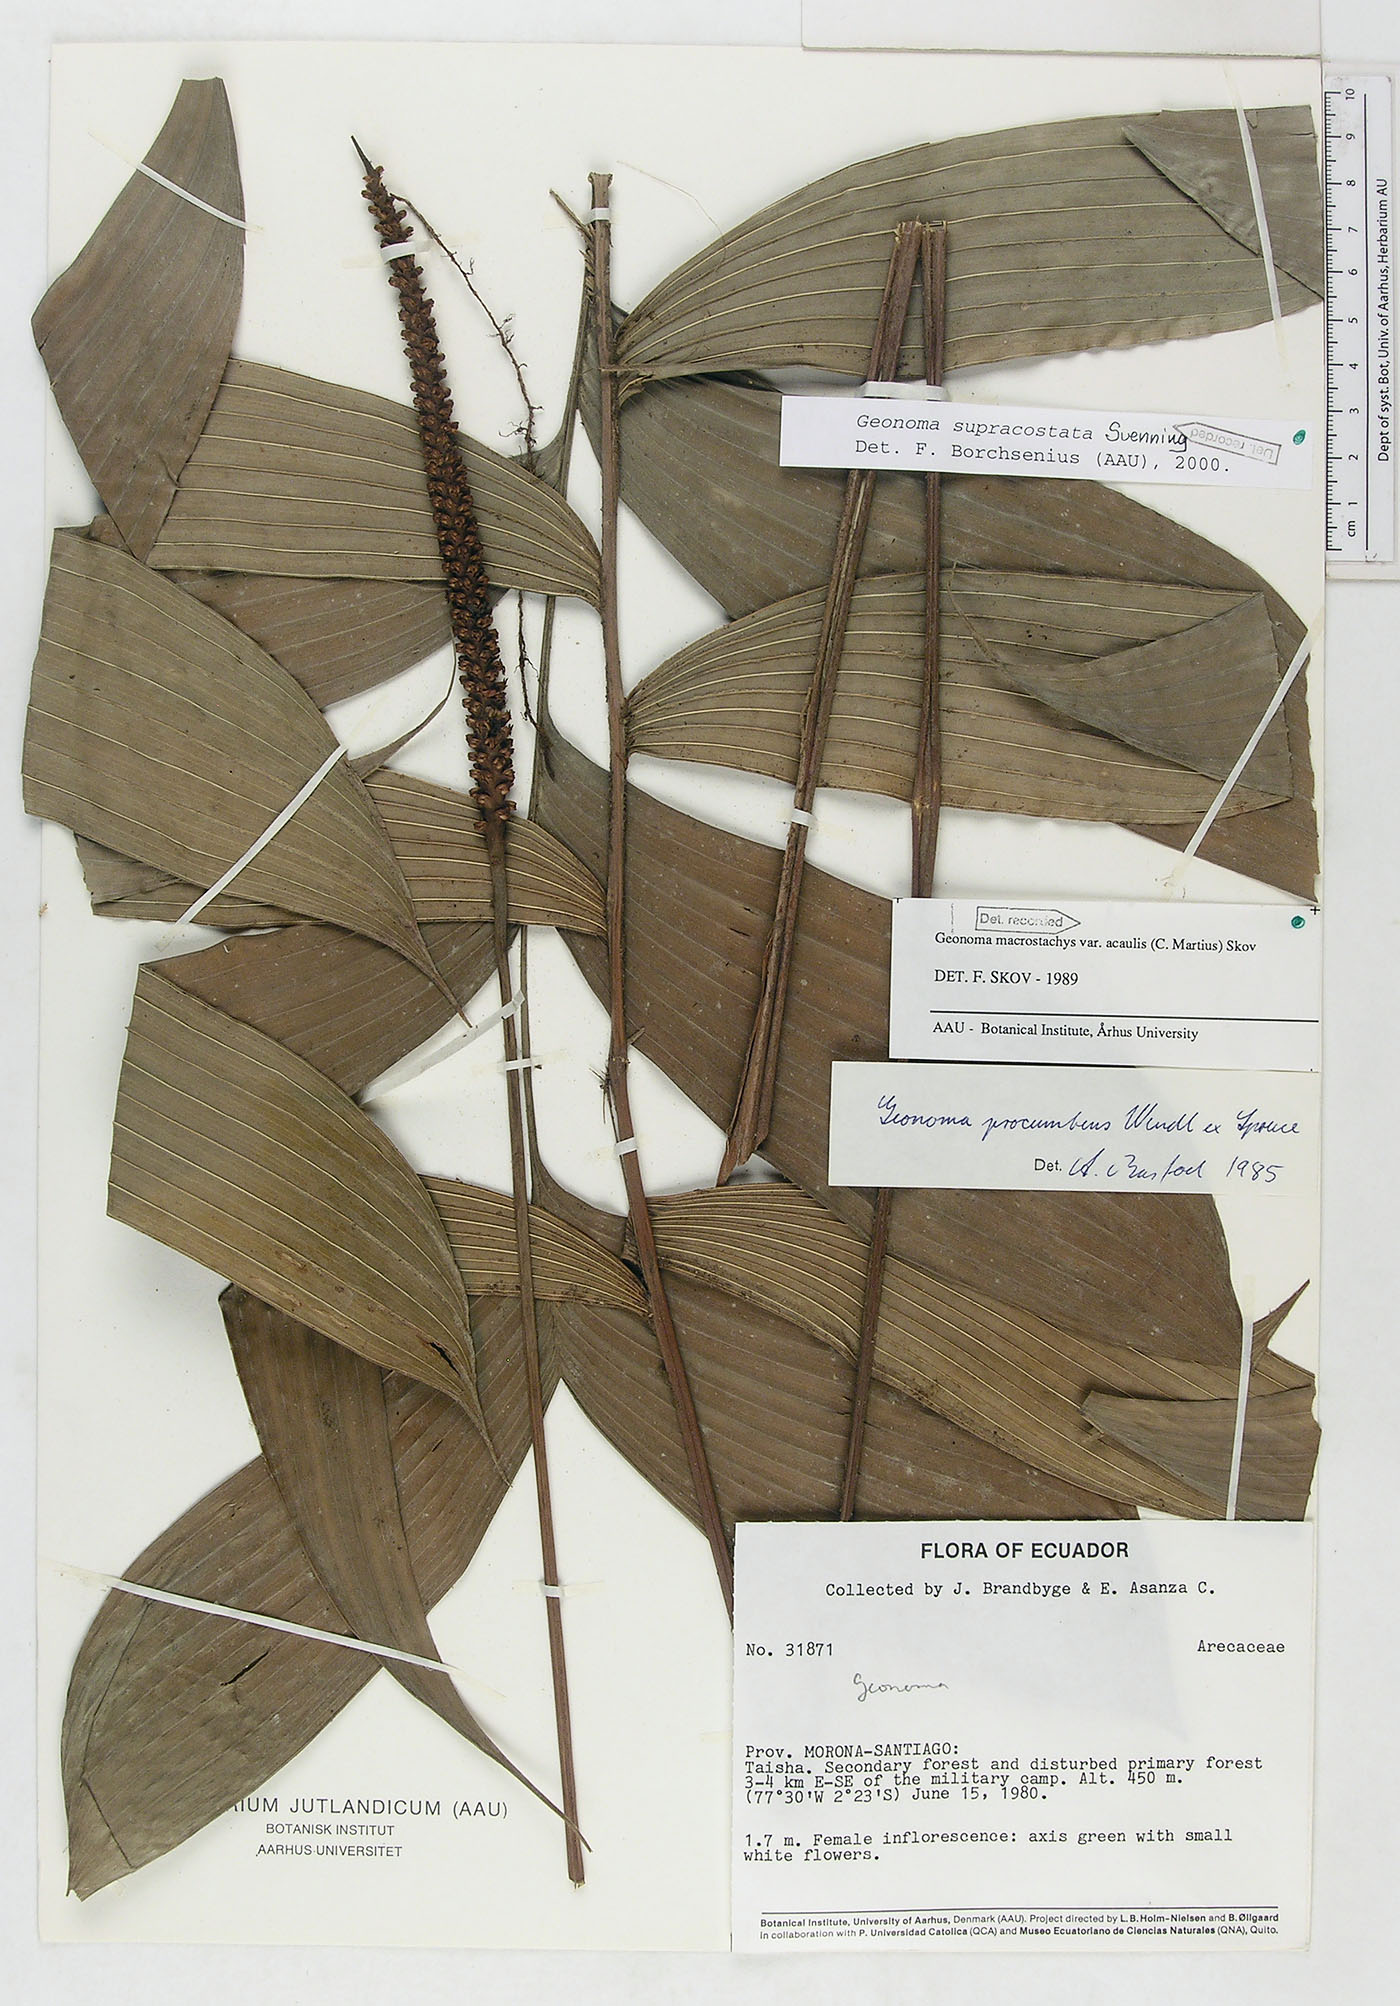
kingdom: Plantae
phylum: Tracheophyta
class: Liliopsida
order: Arecales
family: Arecaceae
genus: Geonoma
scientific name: Geonoma macrostachys
